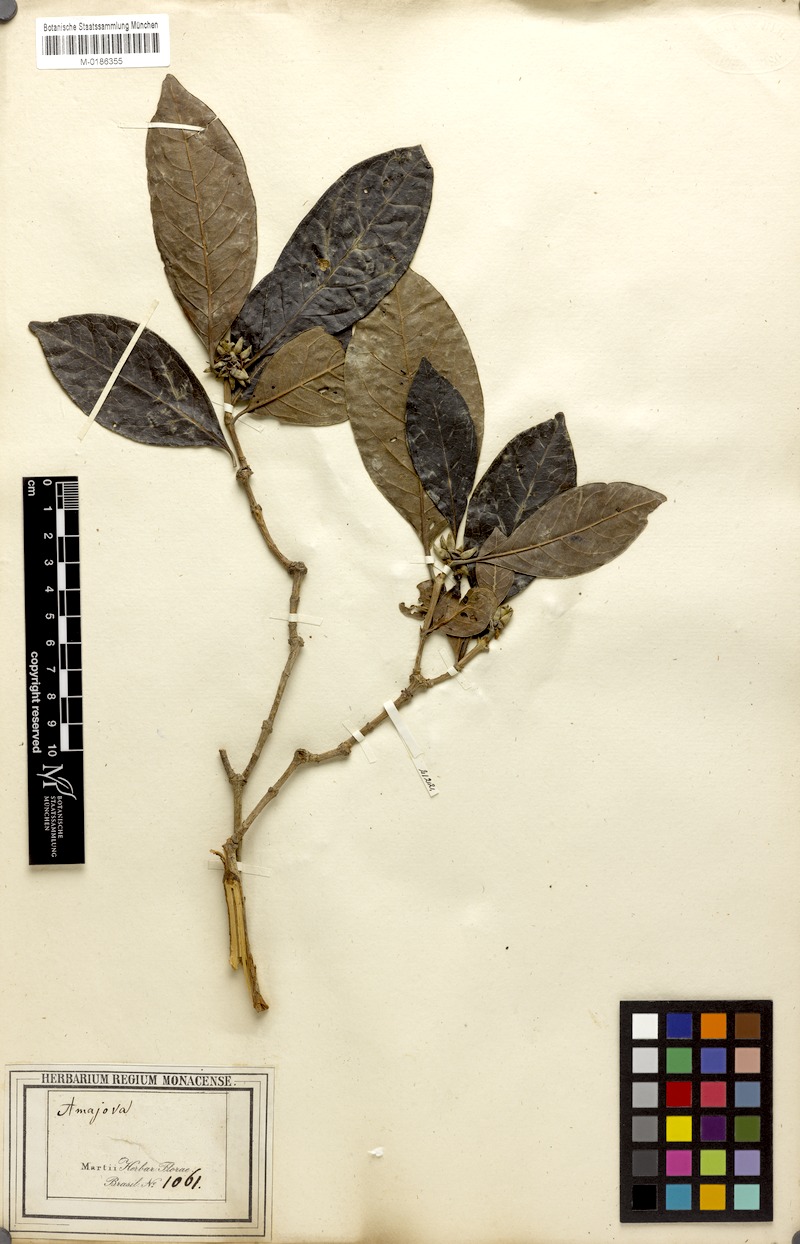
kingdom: Plantae
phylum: Tracheophyta
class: Magnoliopsida
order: Gentianales
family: Rubiaceae
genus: Cordiera
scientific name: Cordiera elliptica
